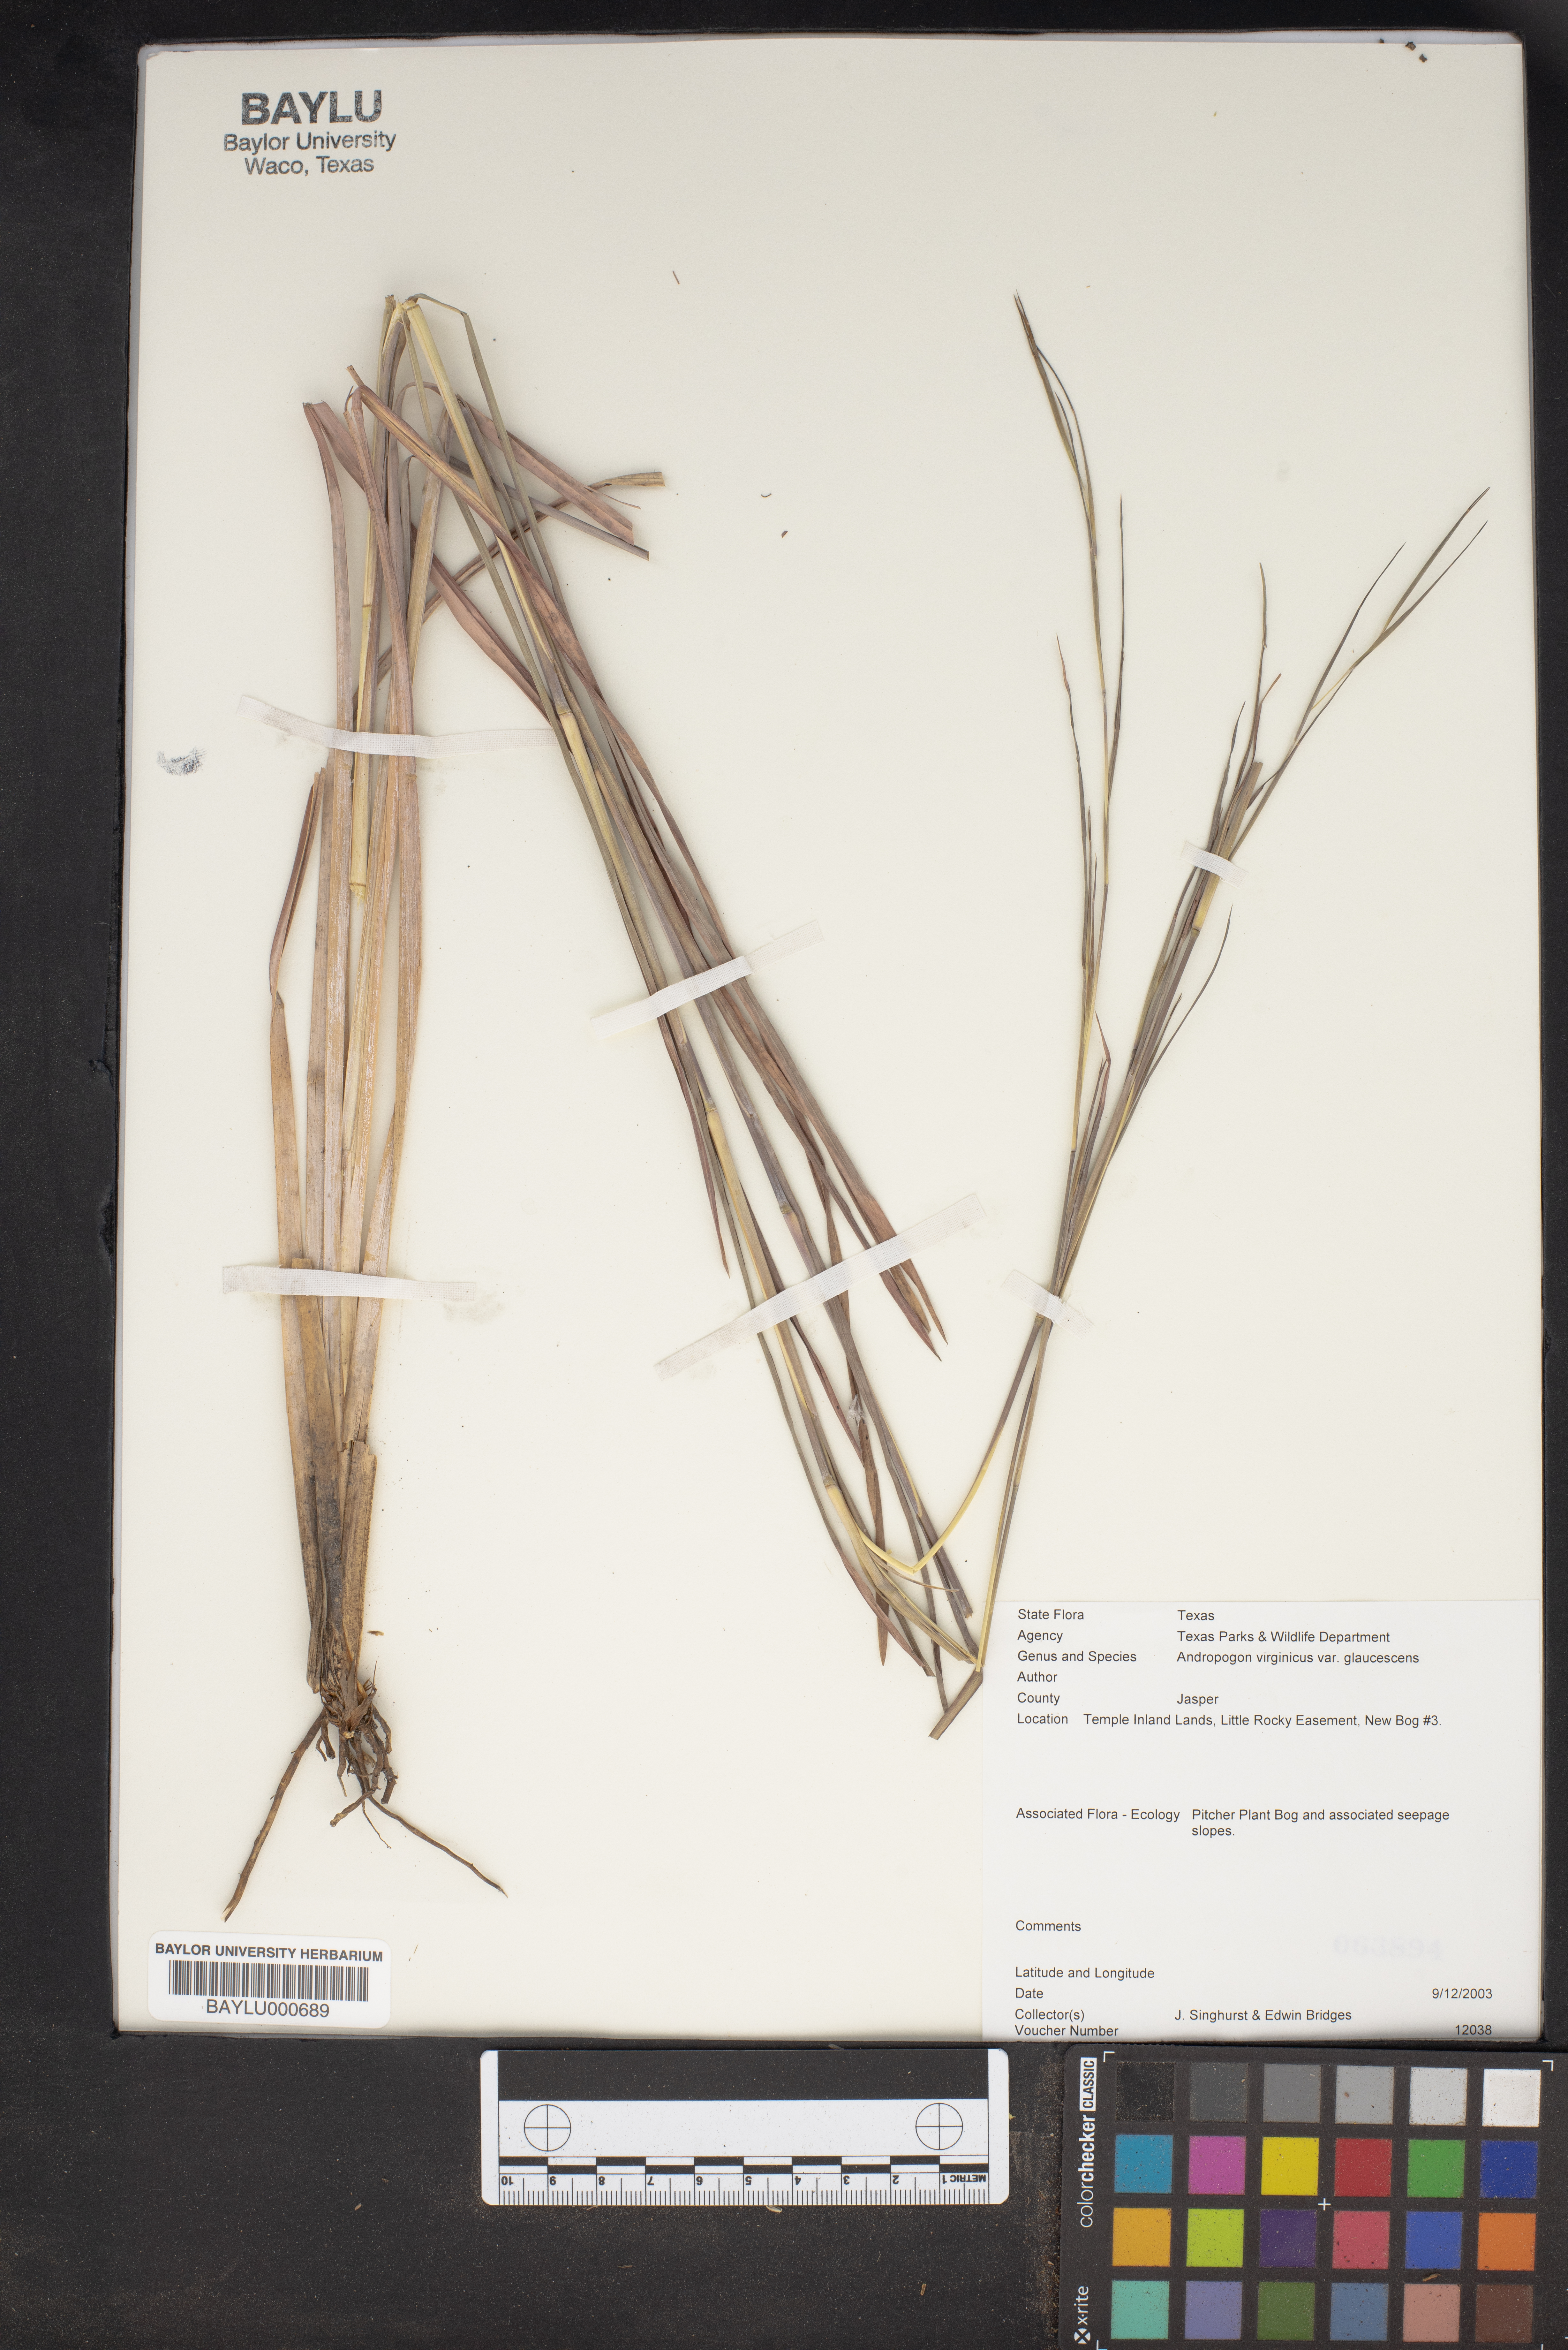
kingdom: Plantae
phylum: Tracheophyta
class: Liliopsida
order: Poales
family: Poaceae
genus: Andropogon
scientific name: Andropogon cretaceus
